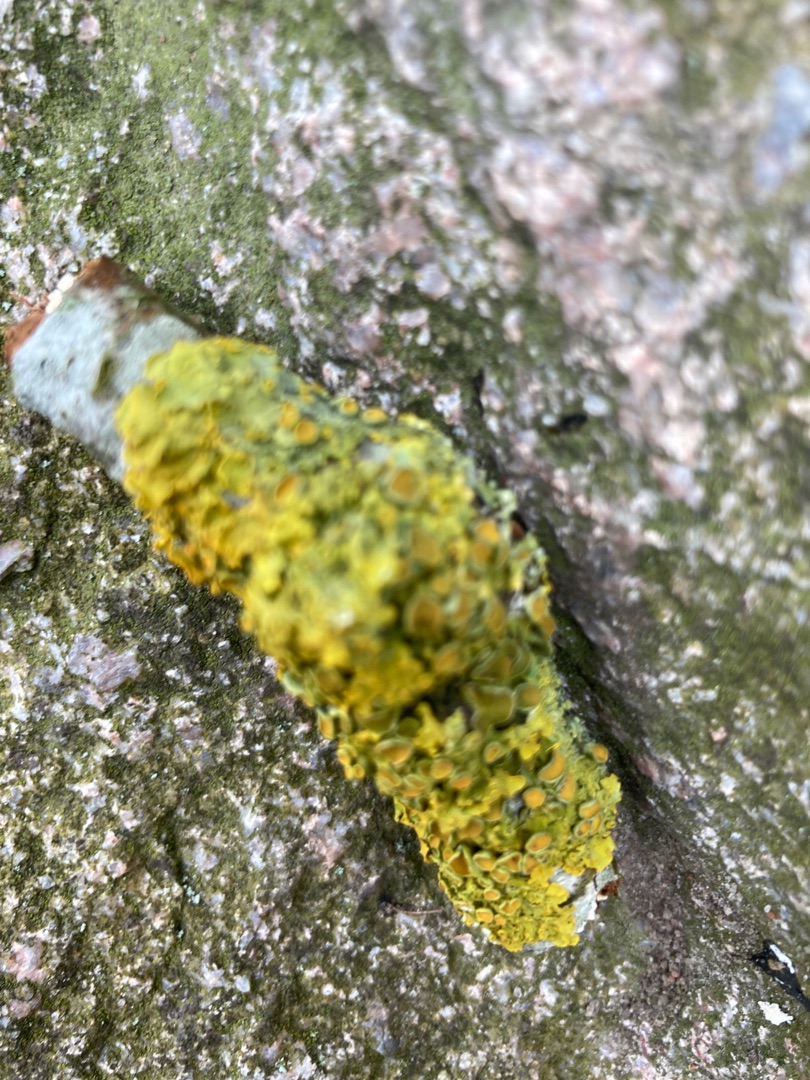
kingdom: Fungi
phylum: Ascomycota
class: Lecanoromycetes
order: Teloschistales
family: Teloschistaceae
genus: Xanthoria
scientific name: Xanthoria parietina
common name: Almindelig væggelav
